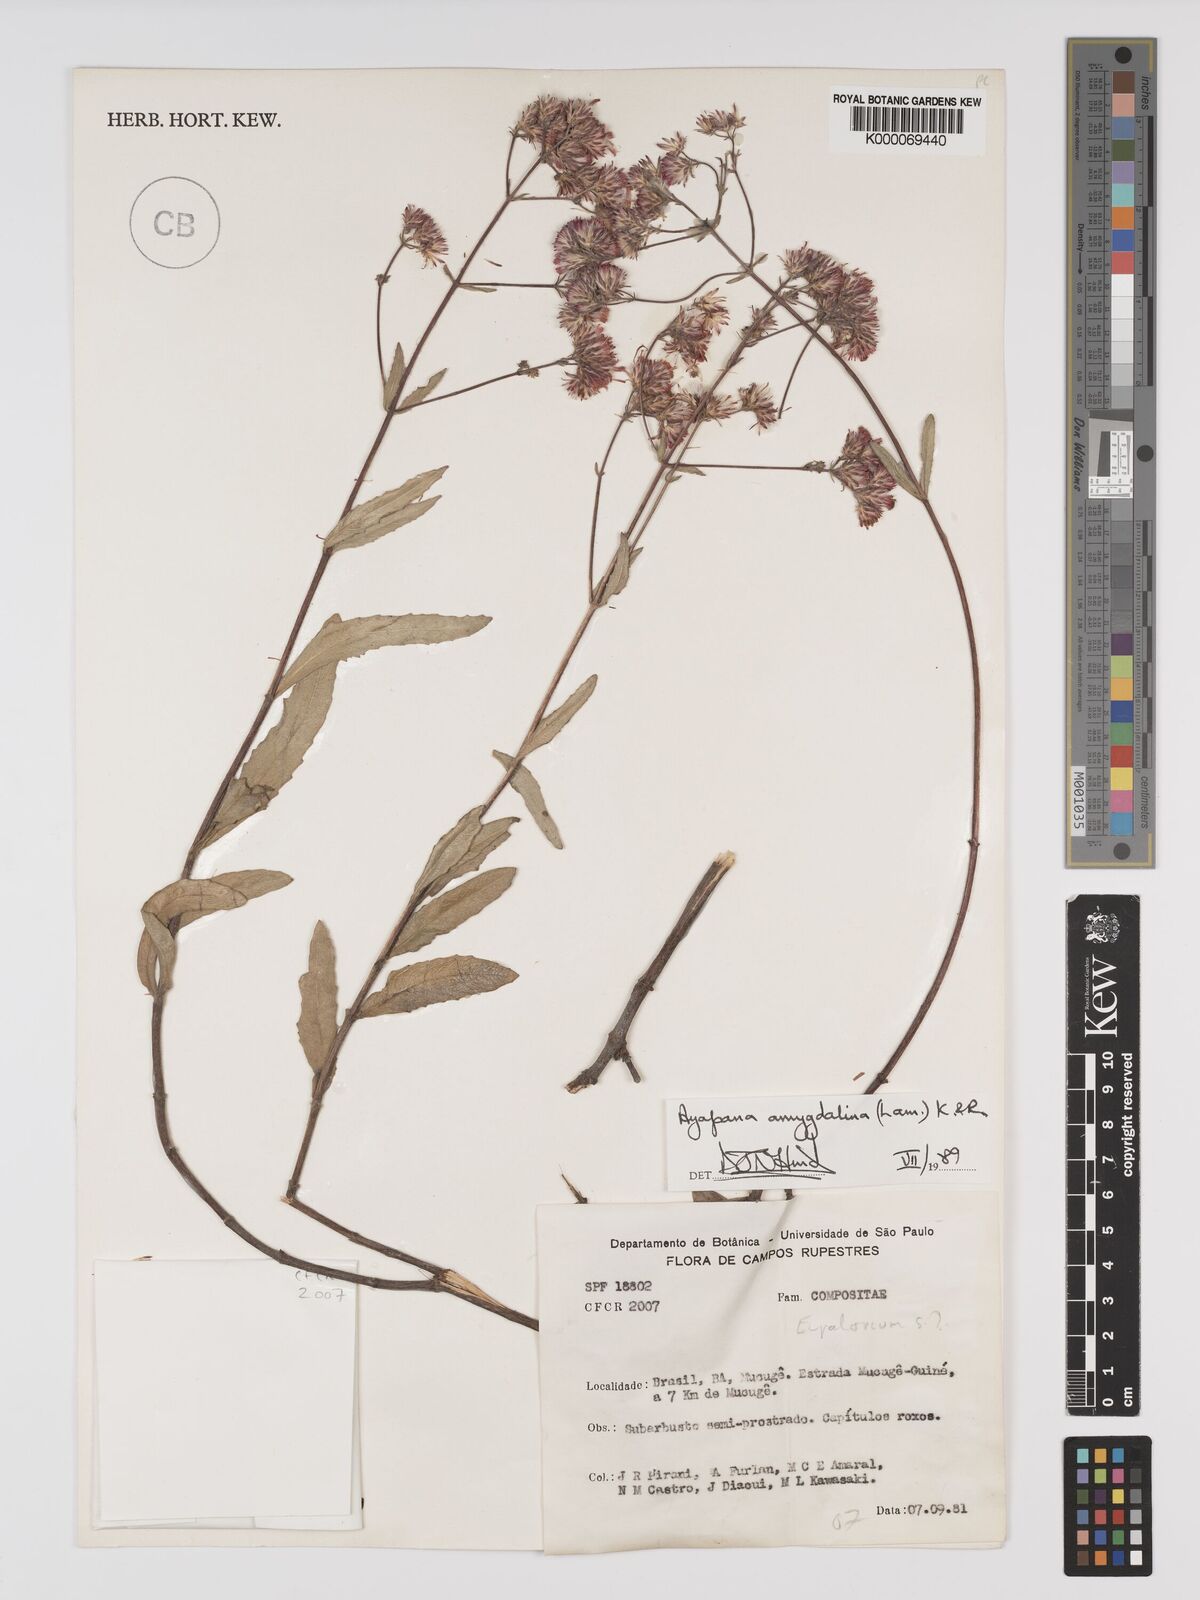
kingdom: Plantae
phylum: Tracheophyta
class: Magnoliopsida
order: Asterales
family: Asteraceae
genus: Ayapana
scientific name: Ayapana amygdalina
